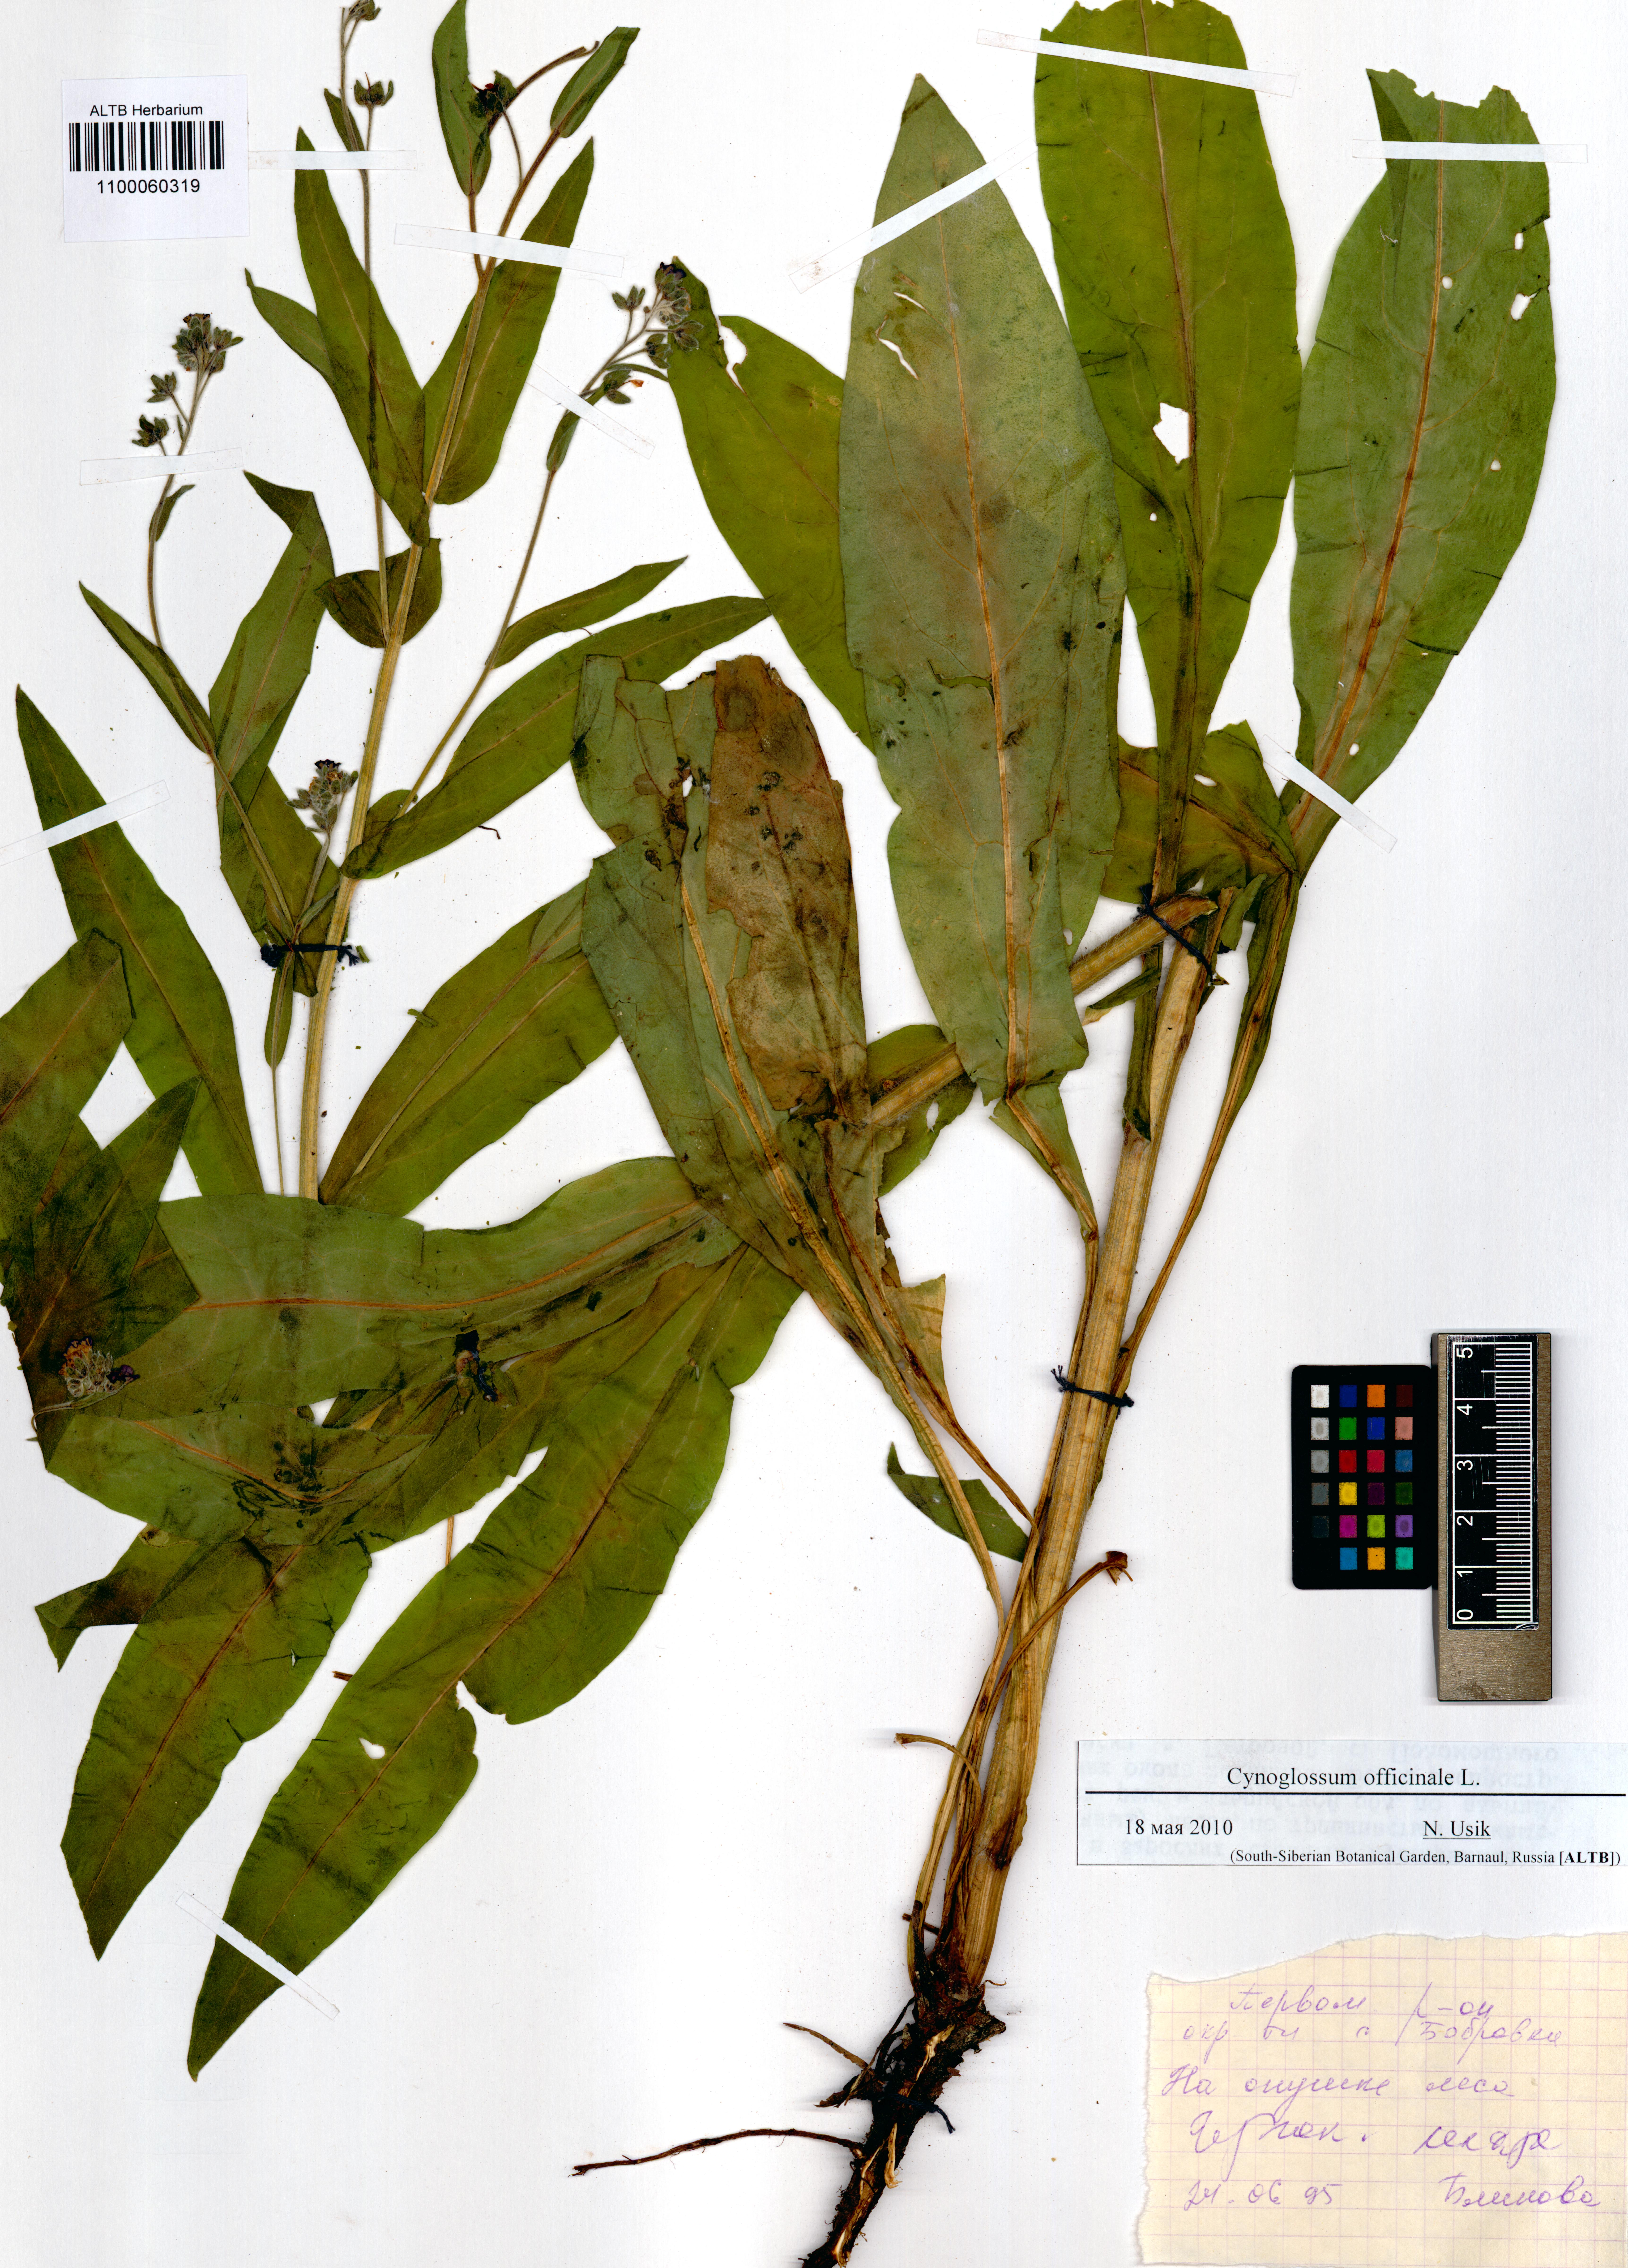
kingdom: Plantae
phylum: Tracheophyta
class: Magnoliopsida
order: Boraginales
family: Boraginaceae
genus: Cynoglossum
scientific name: Cynoglossum officinale
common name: Hound's-tongue
